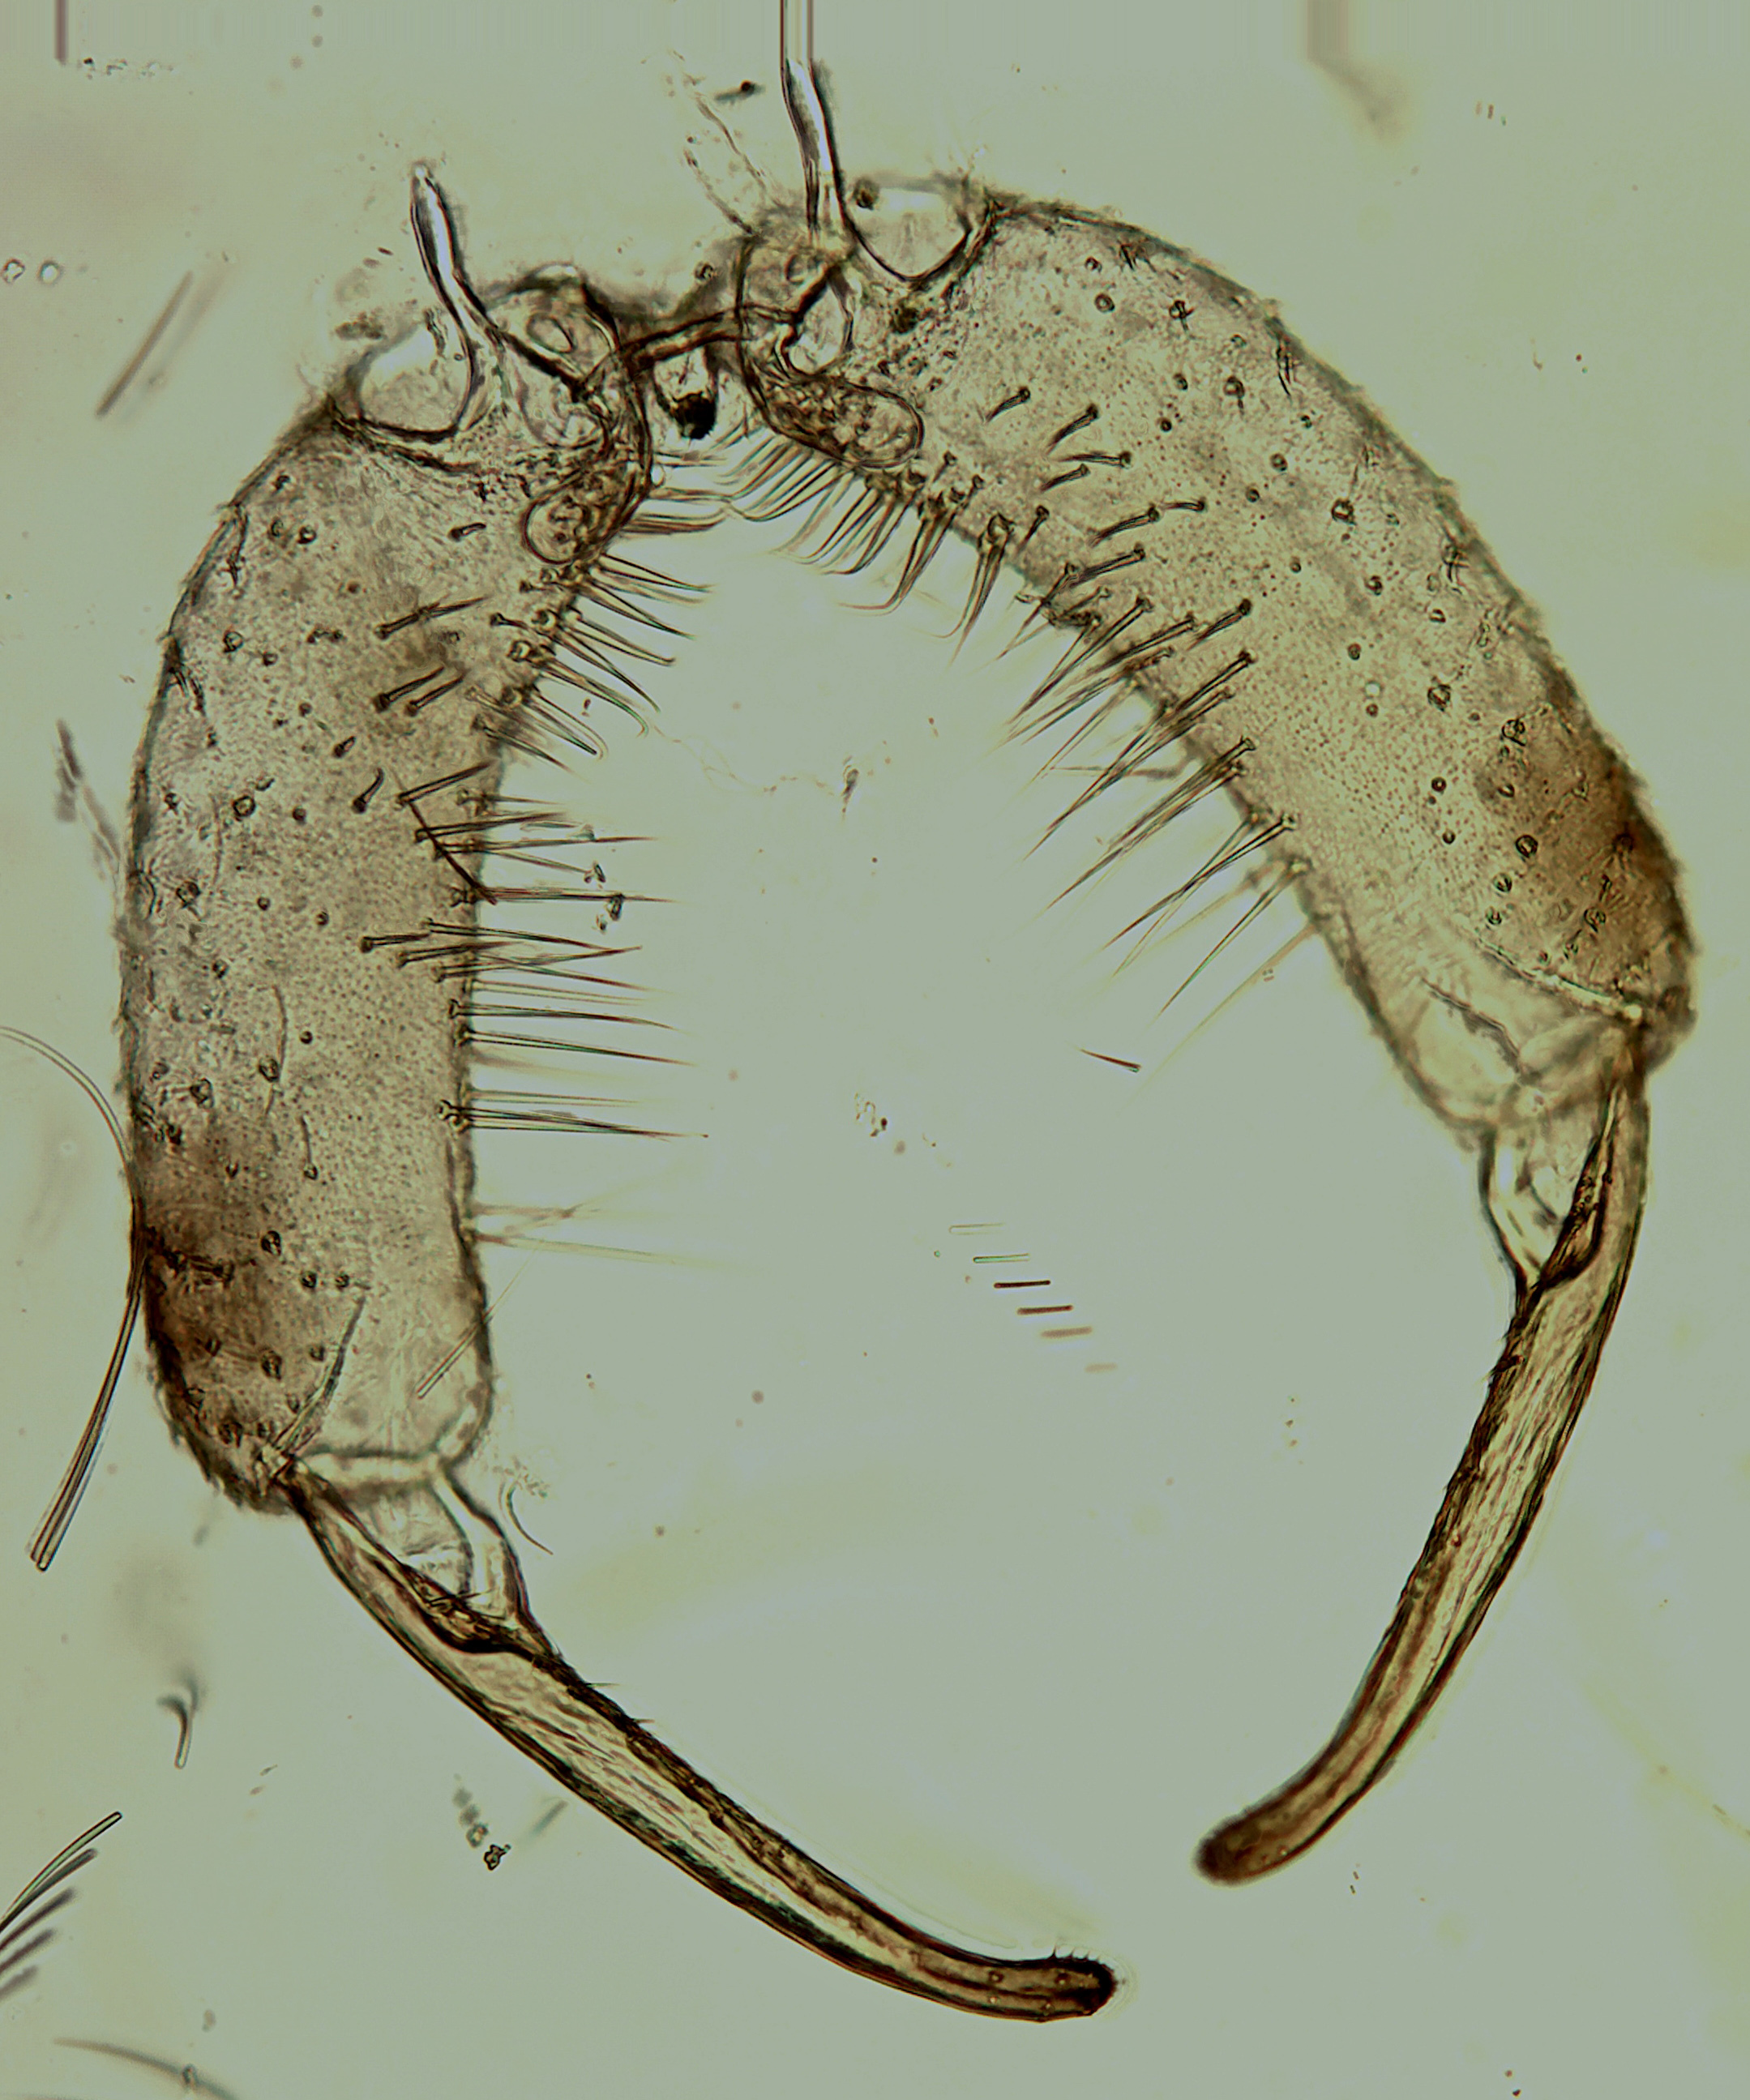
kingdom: Animalia
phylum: Arthropoda
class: Insecta
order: Diptera
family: Chaoboridae
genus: Chaoborus
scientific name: Chaoborus pallidus
